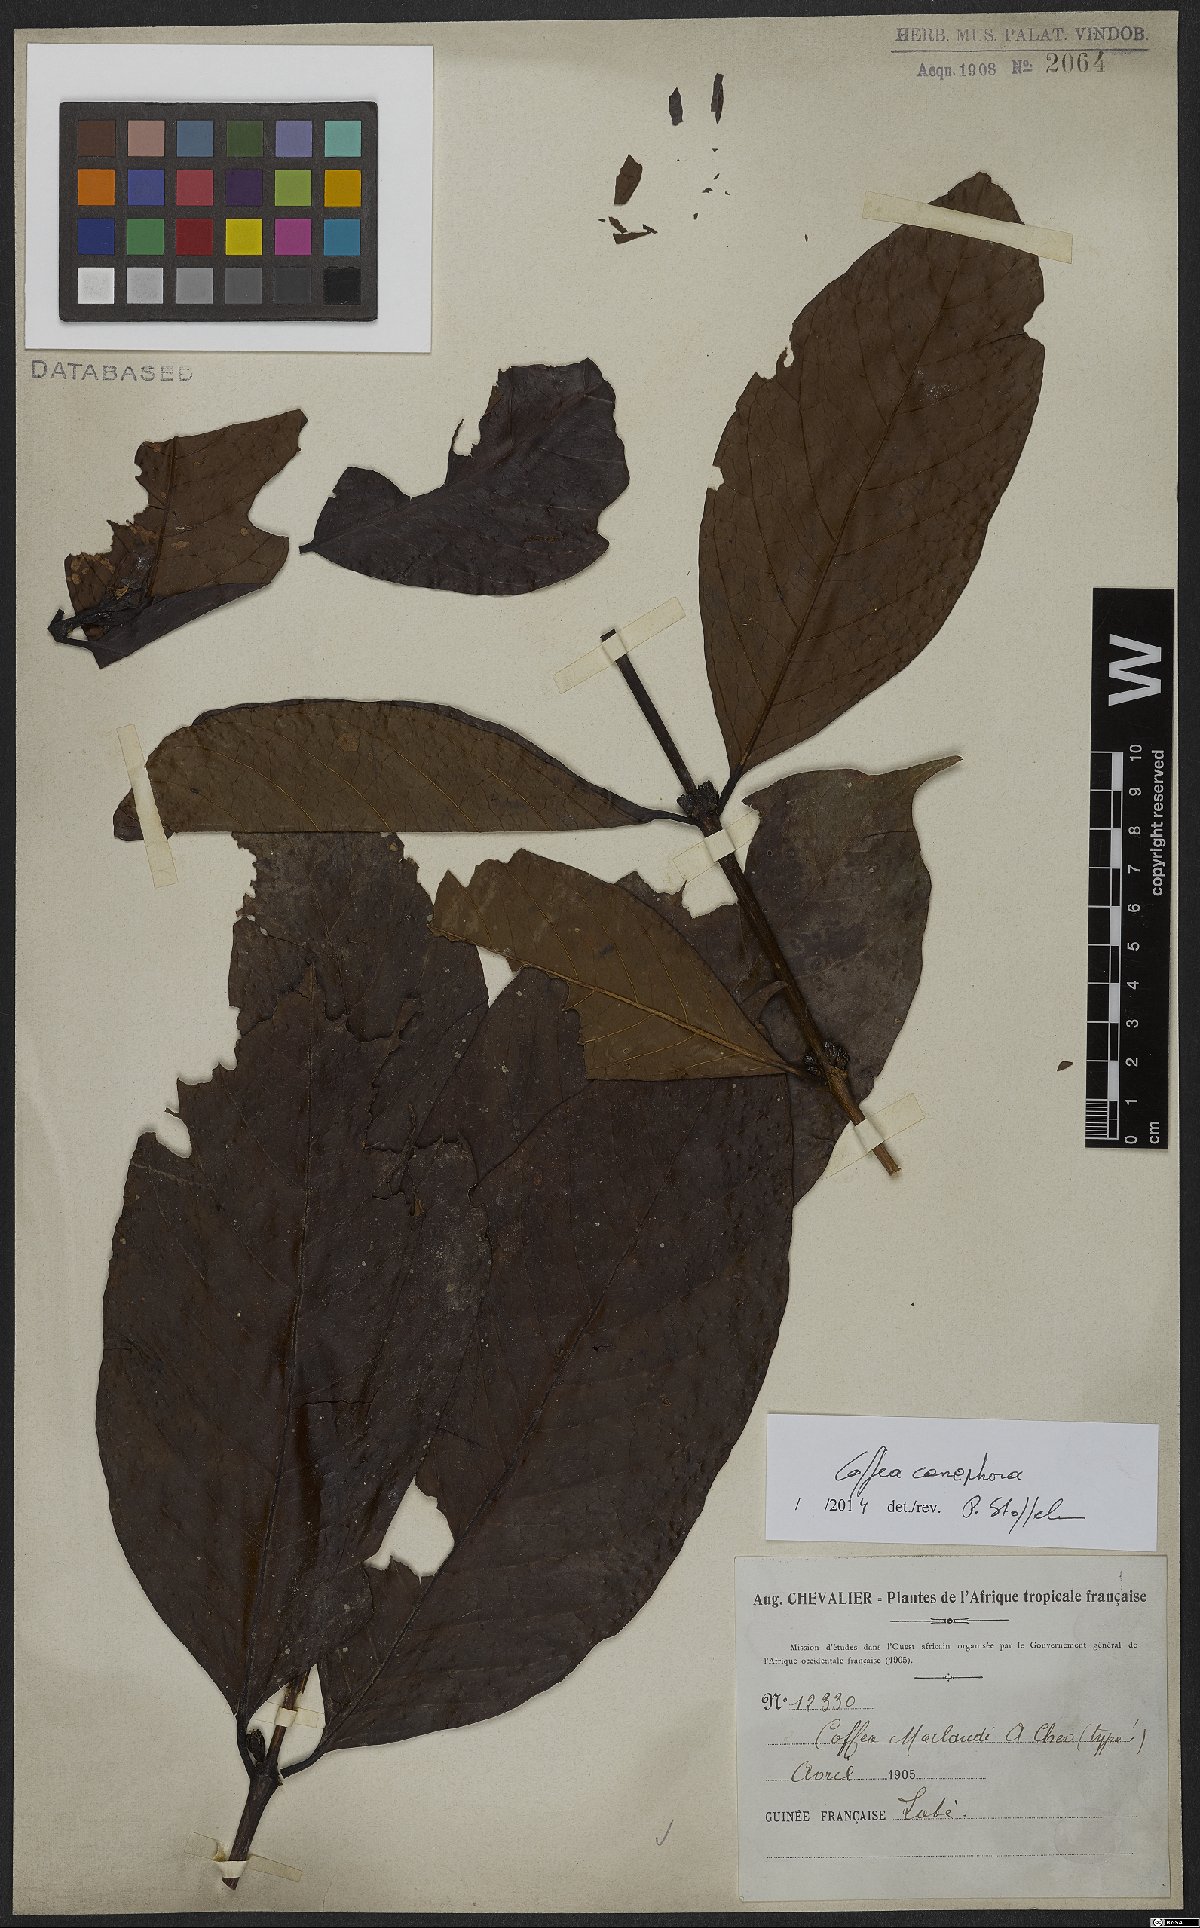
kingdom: Plantae
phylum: Tracheophyta
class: Magnoliopsida
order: Gentianales
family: Rubiaceae
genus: Coffea
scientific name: Coffea canephora
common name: Robusta coffee
